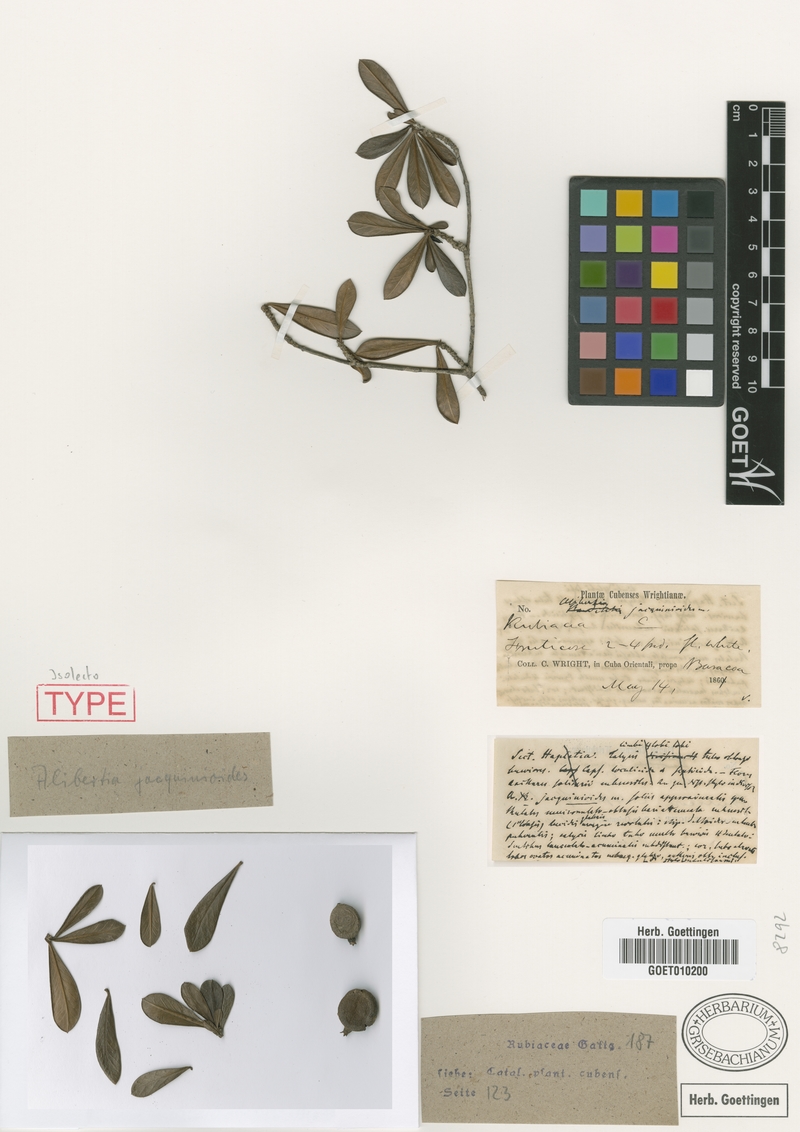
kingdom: Plantae
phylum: Tracheophyta
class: Magnoliopsida
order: Gentianales
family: Rubiaceae
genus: Casasia
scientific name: Casasia jacquinioides
